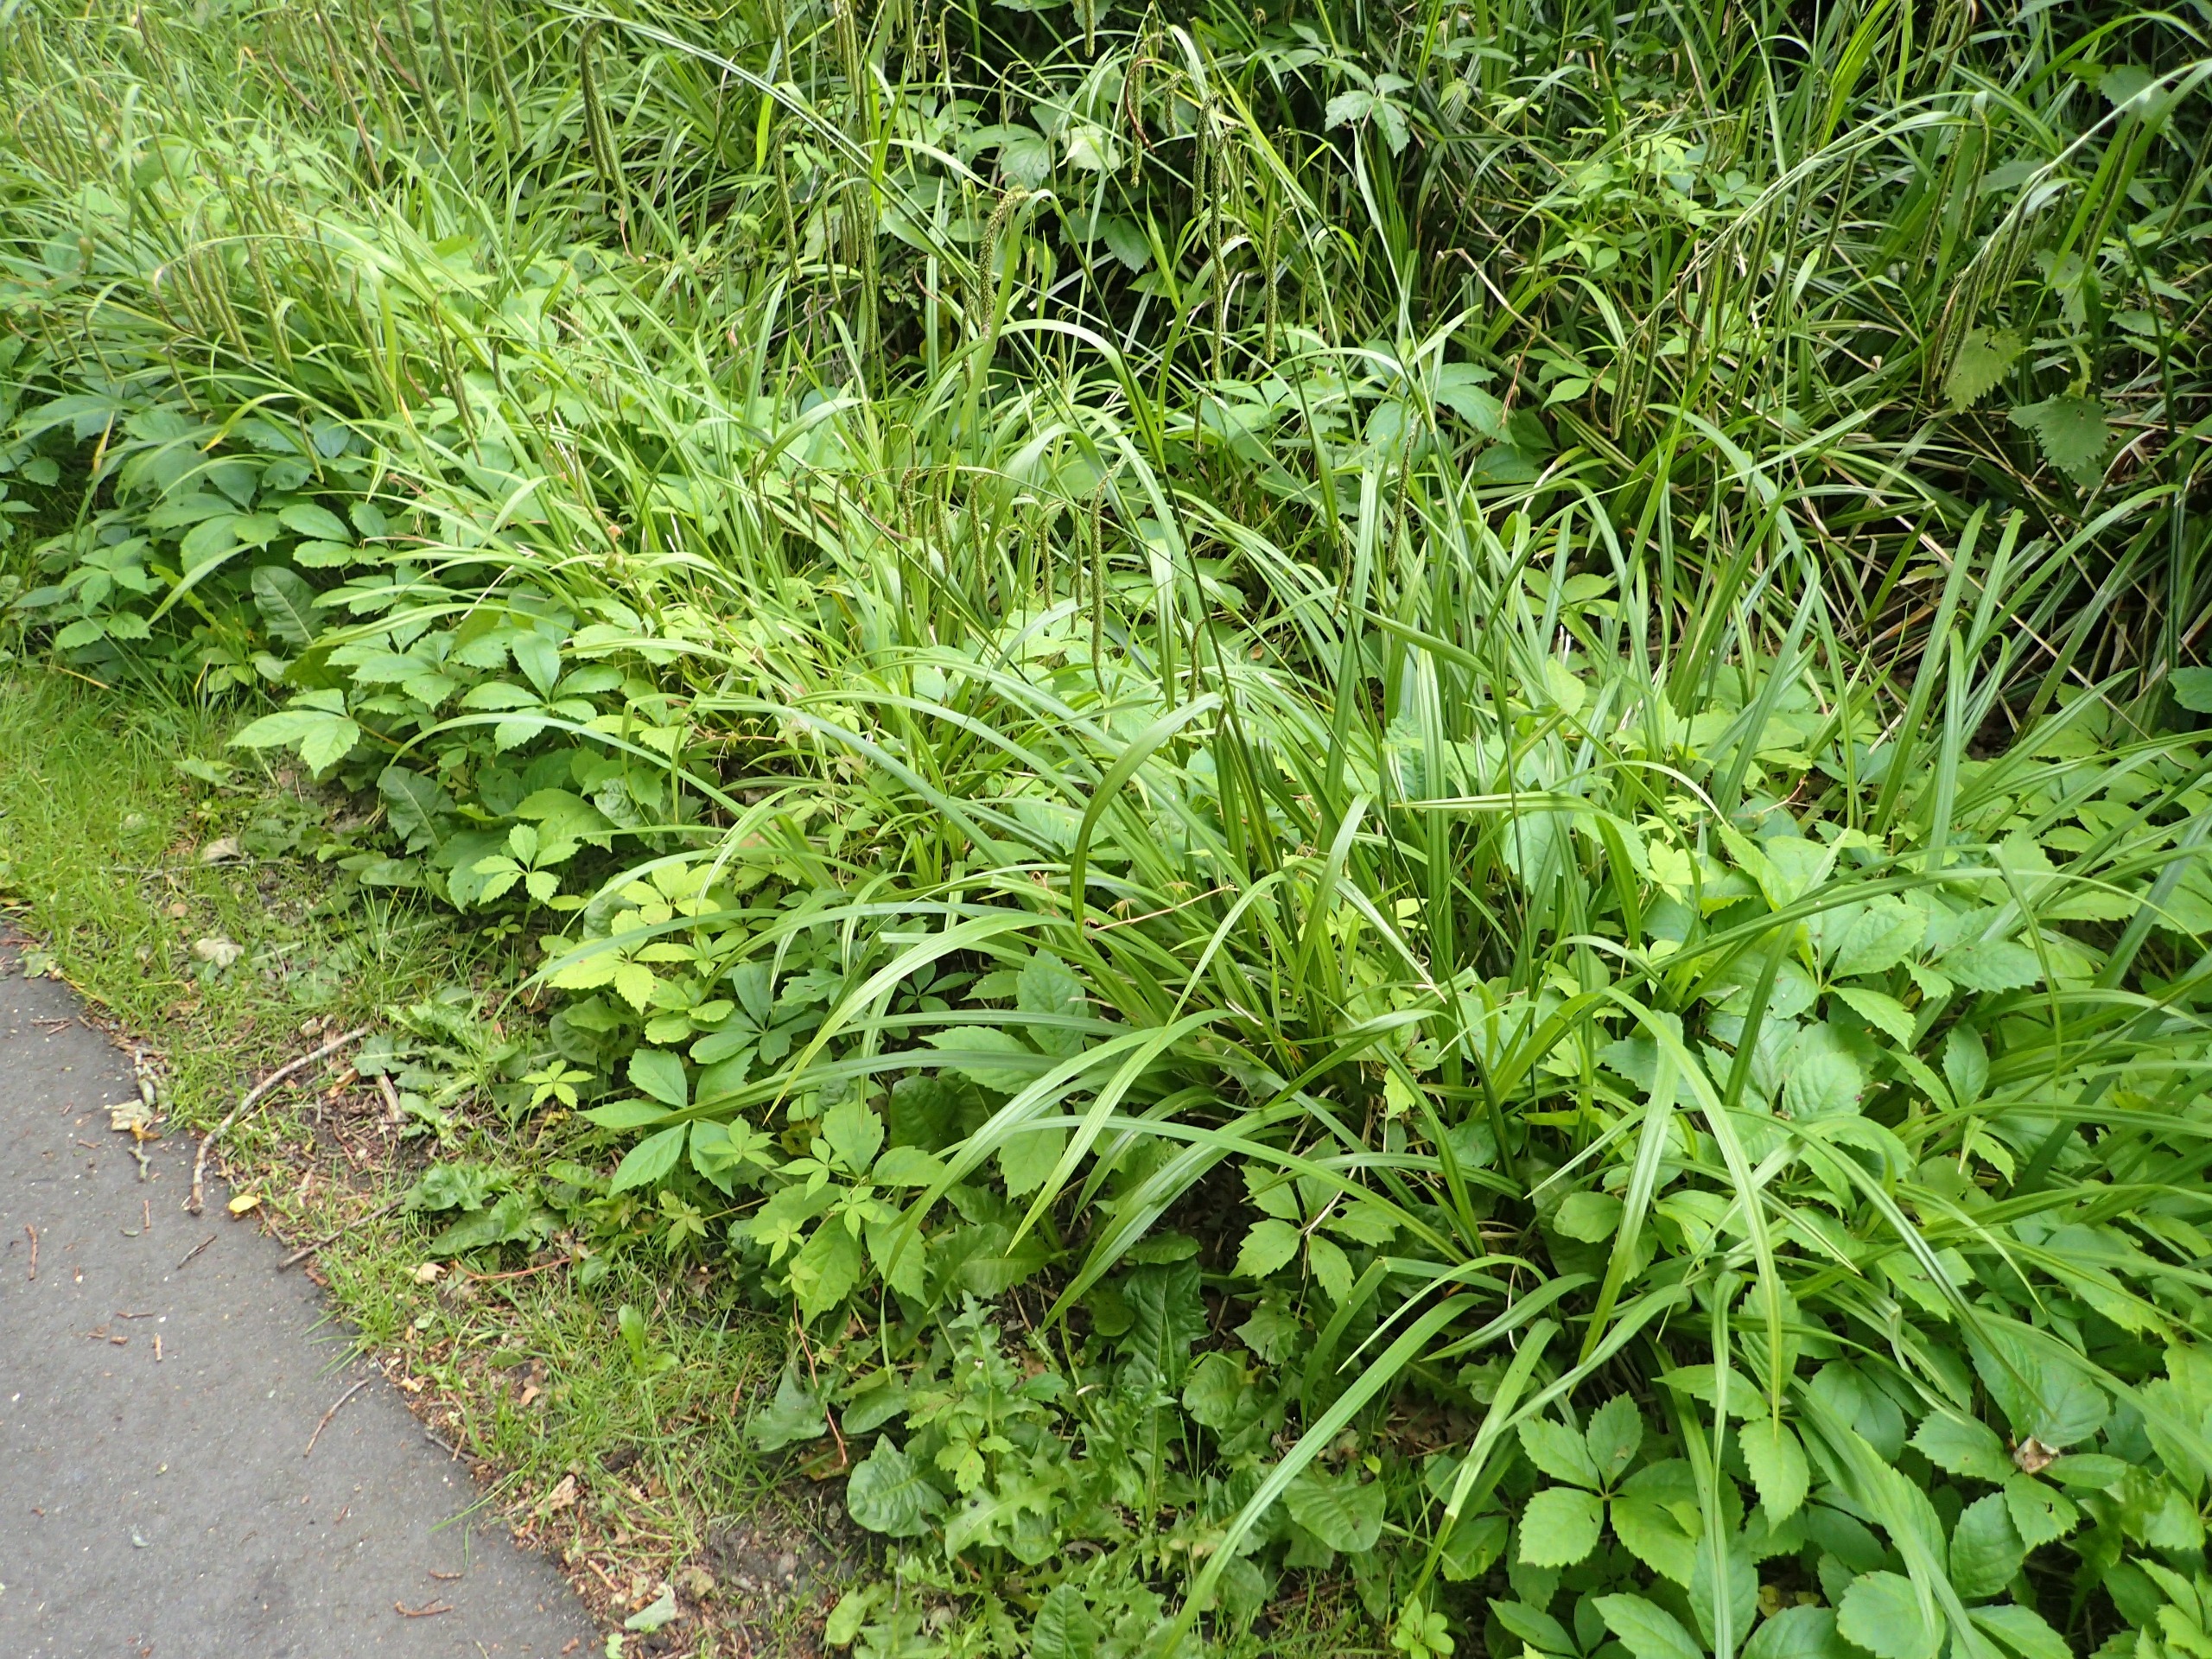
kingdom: Plantae
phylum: Tracheophyta
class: Liliopsida
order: Poales
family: Cyperaceae
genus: Carex
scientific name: Carex pendula
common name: Kæmpe-star
